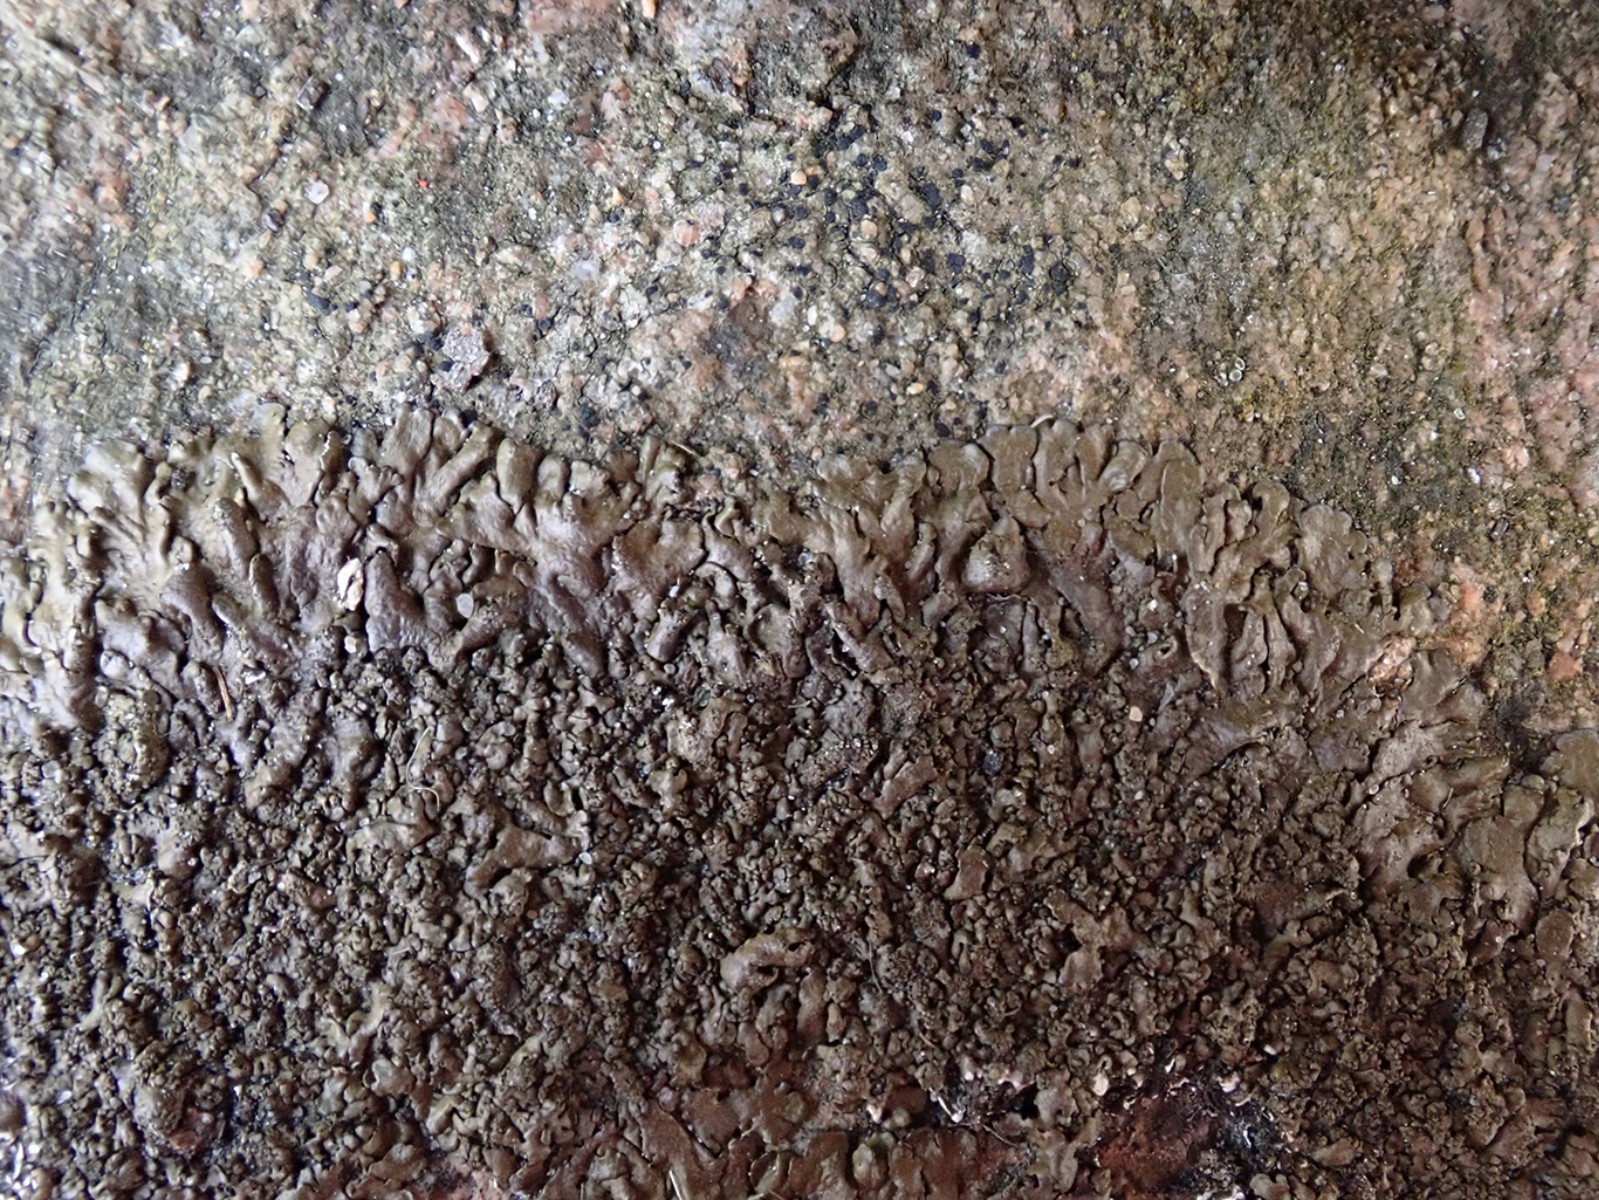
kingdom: Fungi
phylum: Ascomycota
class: Lecanoromycetes
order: Lecanorales
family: Parmeliaceae
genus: Xanthoparmelia
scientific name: Xanthoparmelia verruculifera
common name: småknoppet skållav
